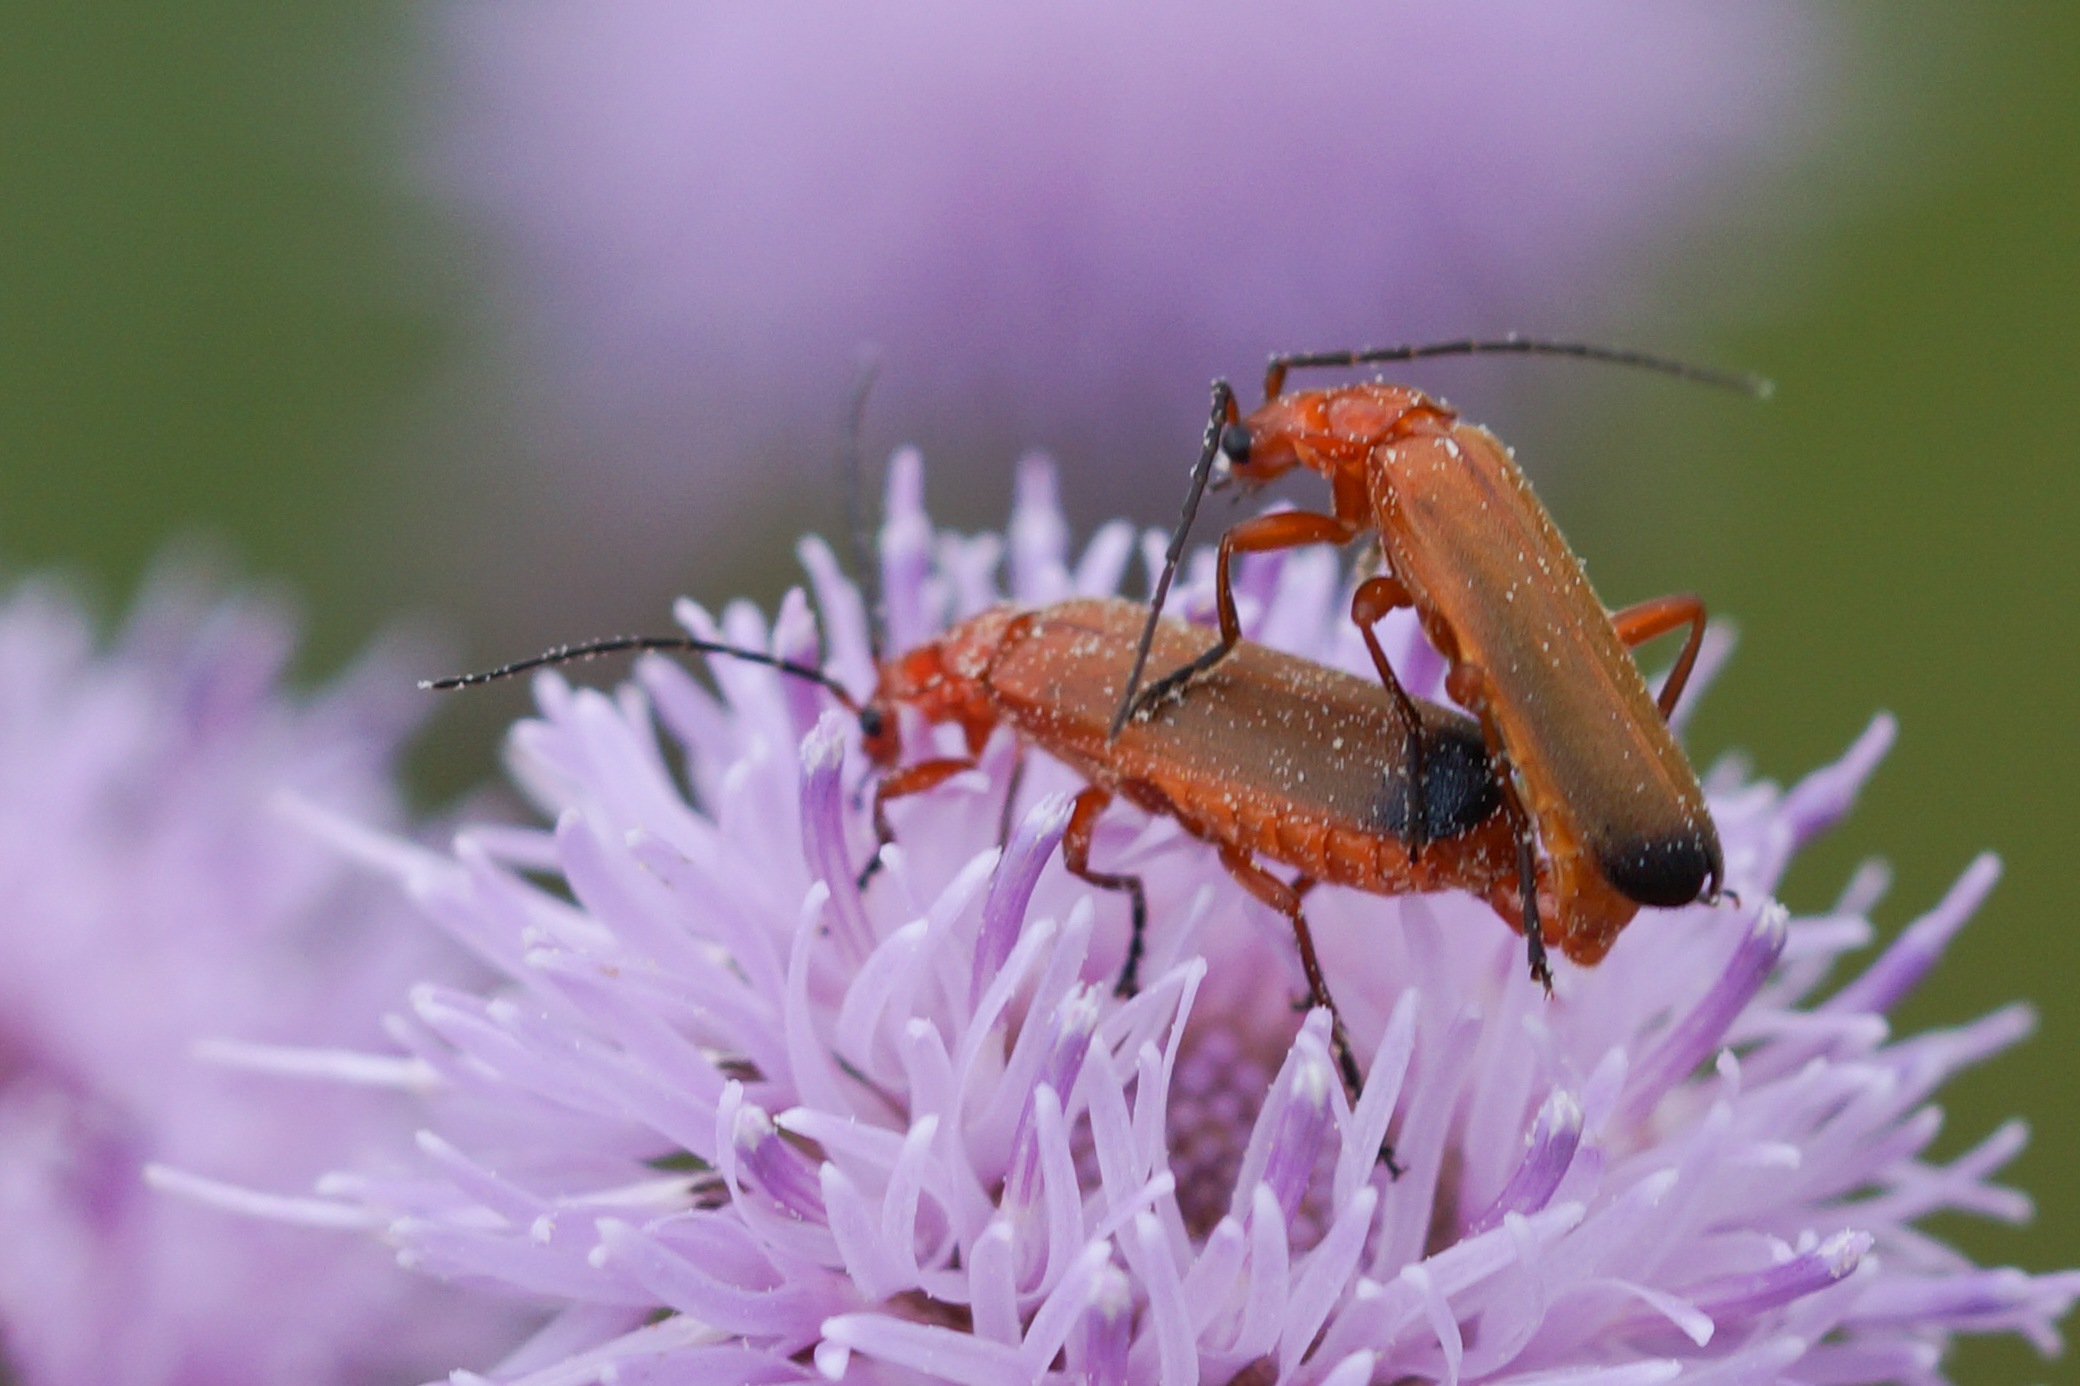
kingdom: Animalia
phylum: Arthropoda
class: Insecta
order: Coleoptera
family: Cantharidae
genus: Rhagonycha
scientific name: Rhagonycha fulva
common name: Præstebille
